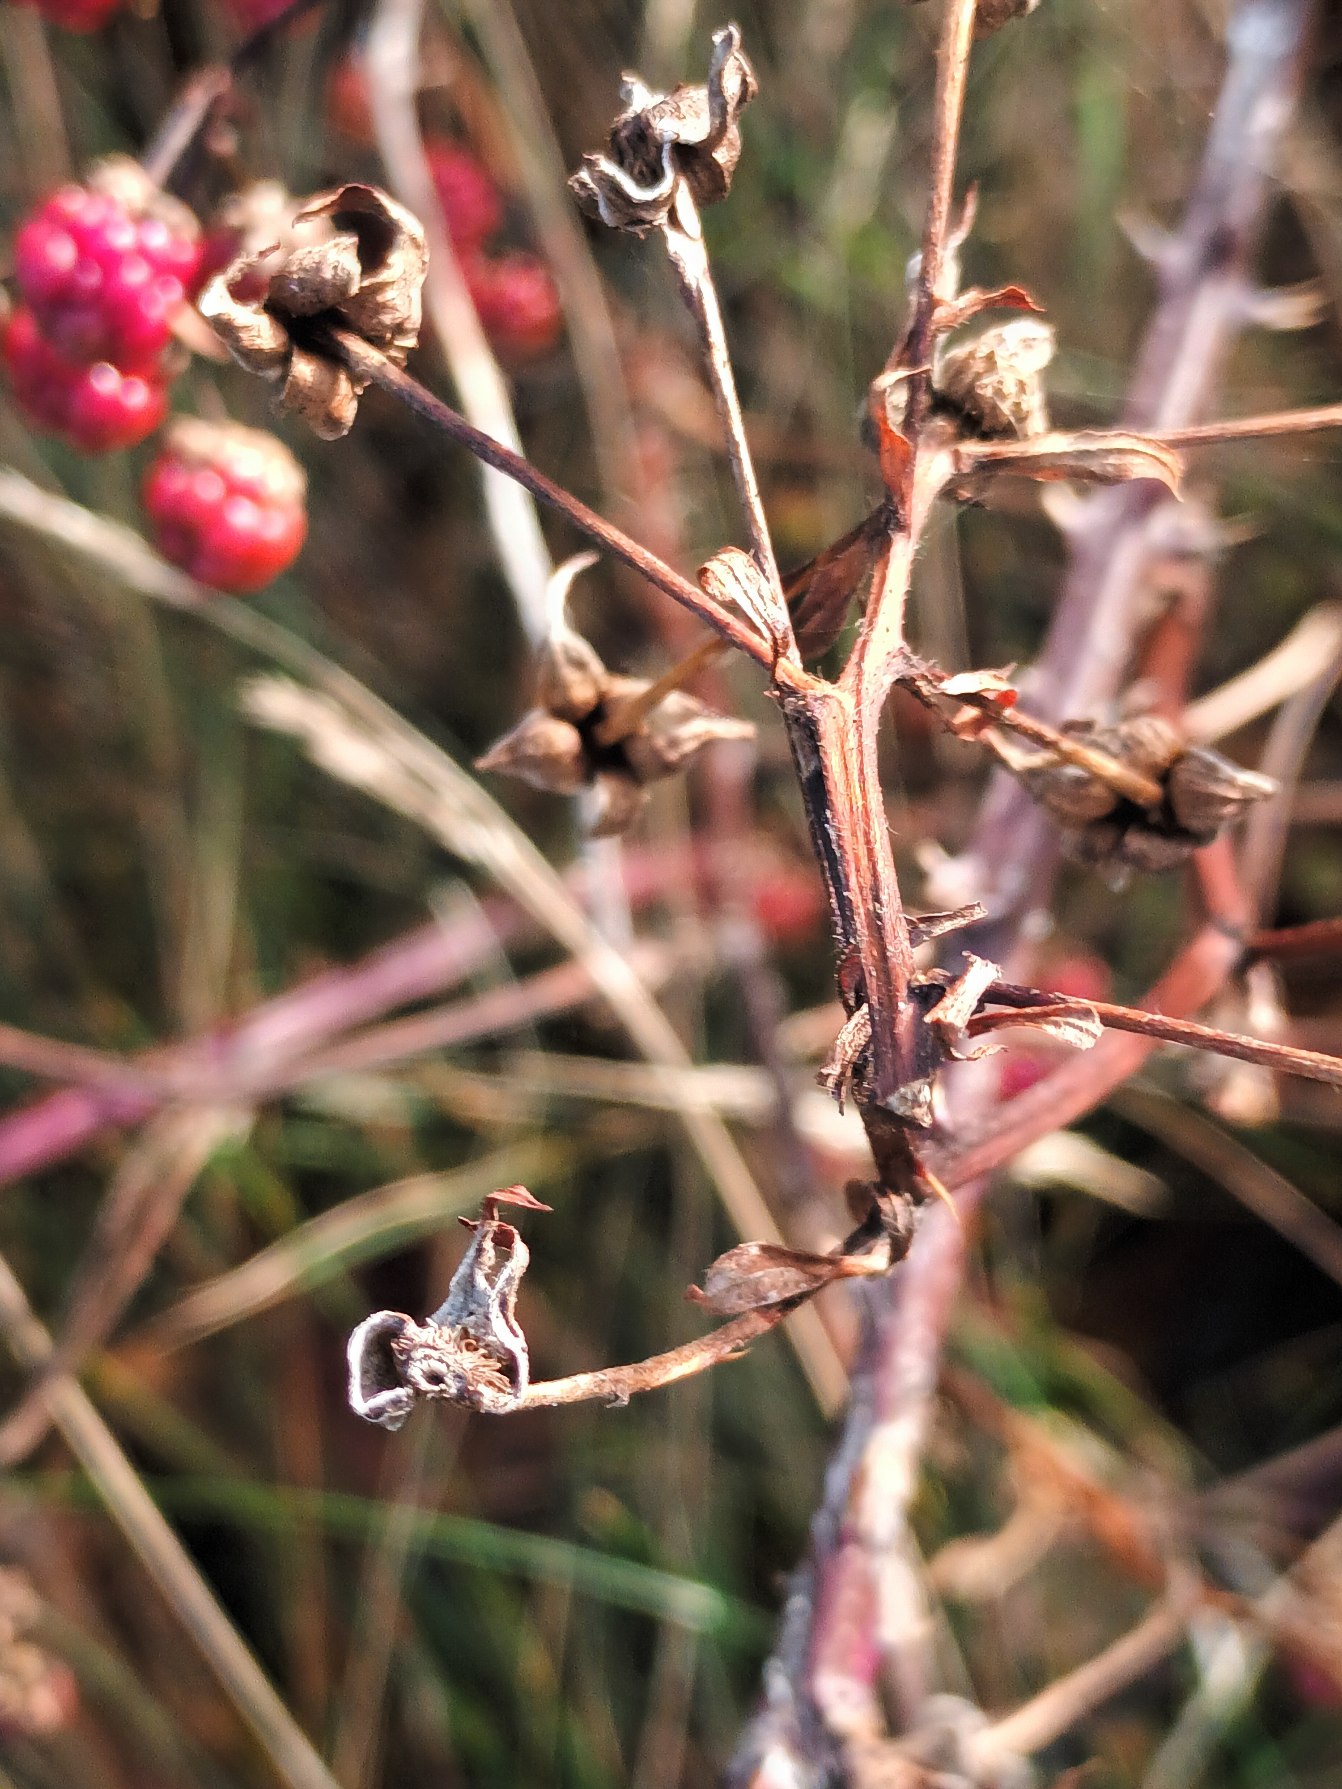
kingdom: Plantae
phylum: Tracheophyta
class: Magnoliopsida
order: Rosales
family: Rosaceae
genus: Rubus
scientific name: Rubus plicatus
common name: Almindelig brombær
